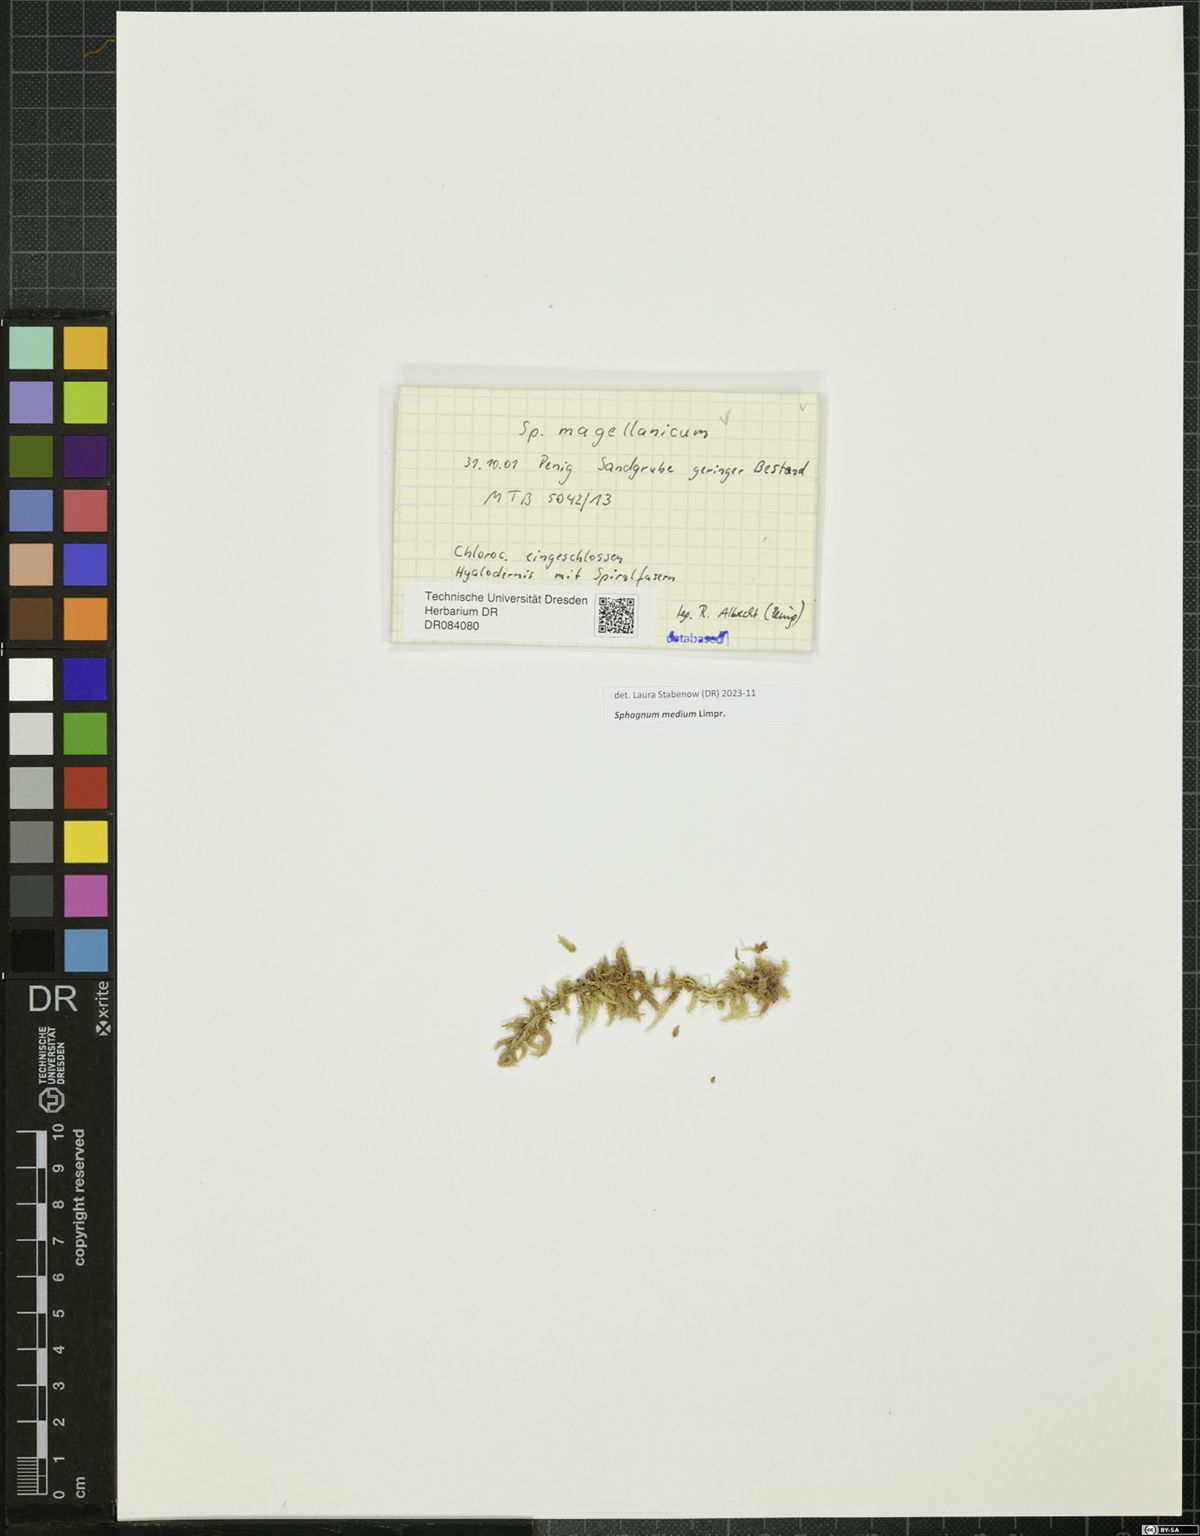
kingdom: Plantae
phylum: Bryophyta
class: Sphagnopsida
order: Sphagnales
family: Sphagnaceae
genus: Sphagnum
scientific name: Sphagnum medium
